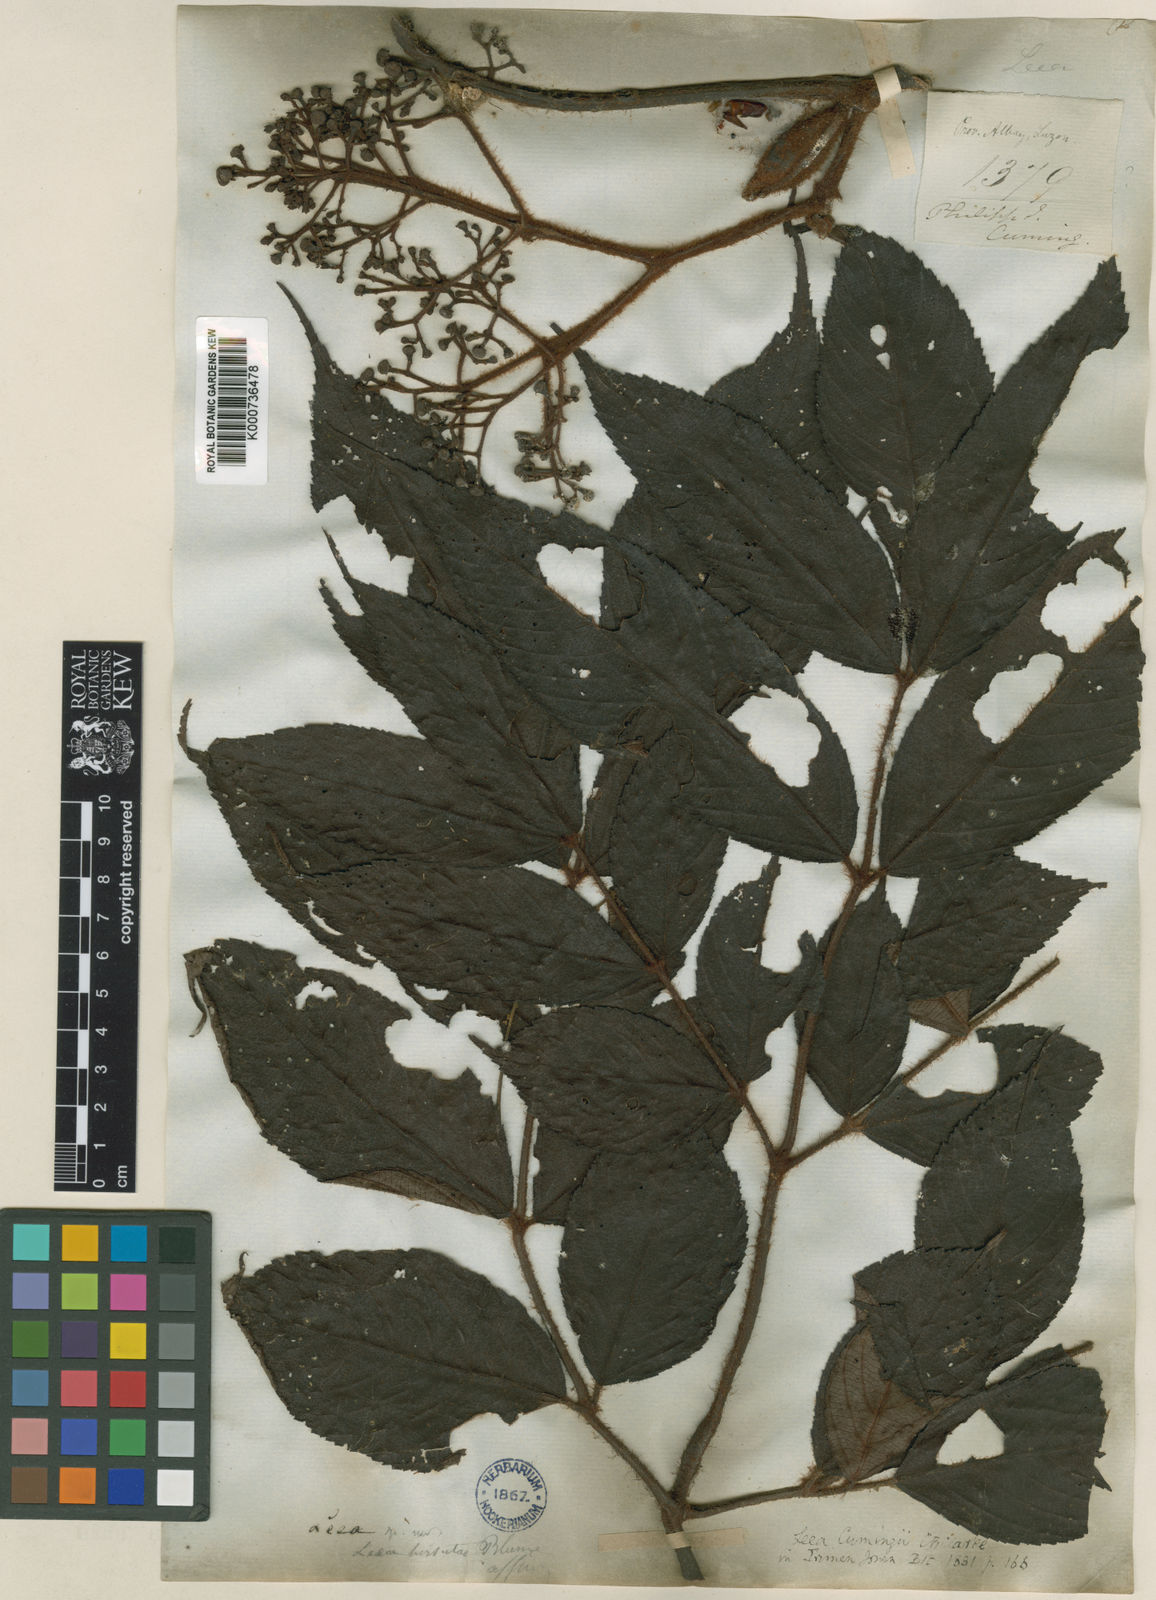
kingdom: Plantae
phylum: Tracheophyta
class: Magnoliopsida
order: Vitales
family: Vitaceae
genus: Leea
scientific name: Leea guineensis
